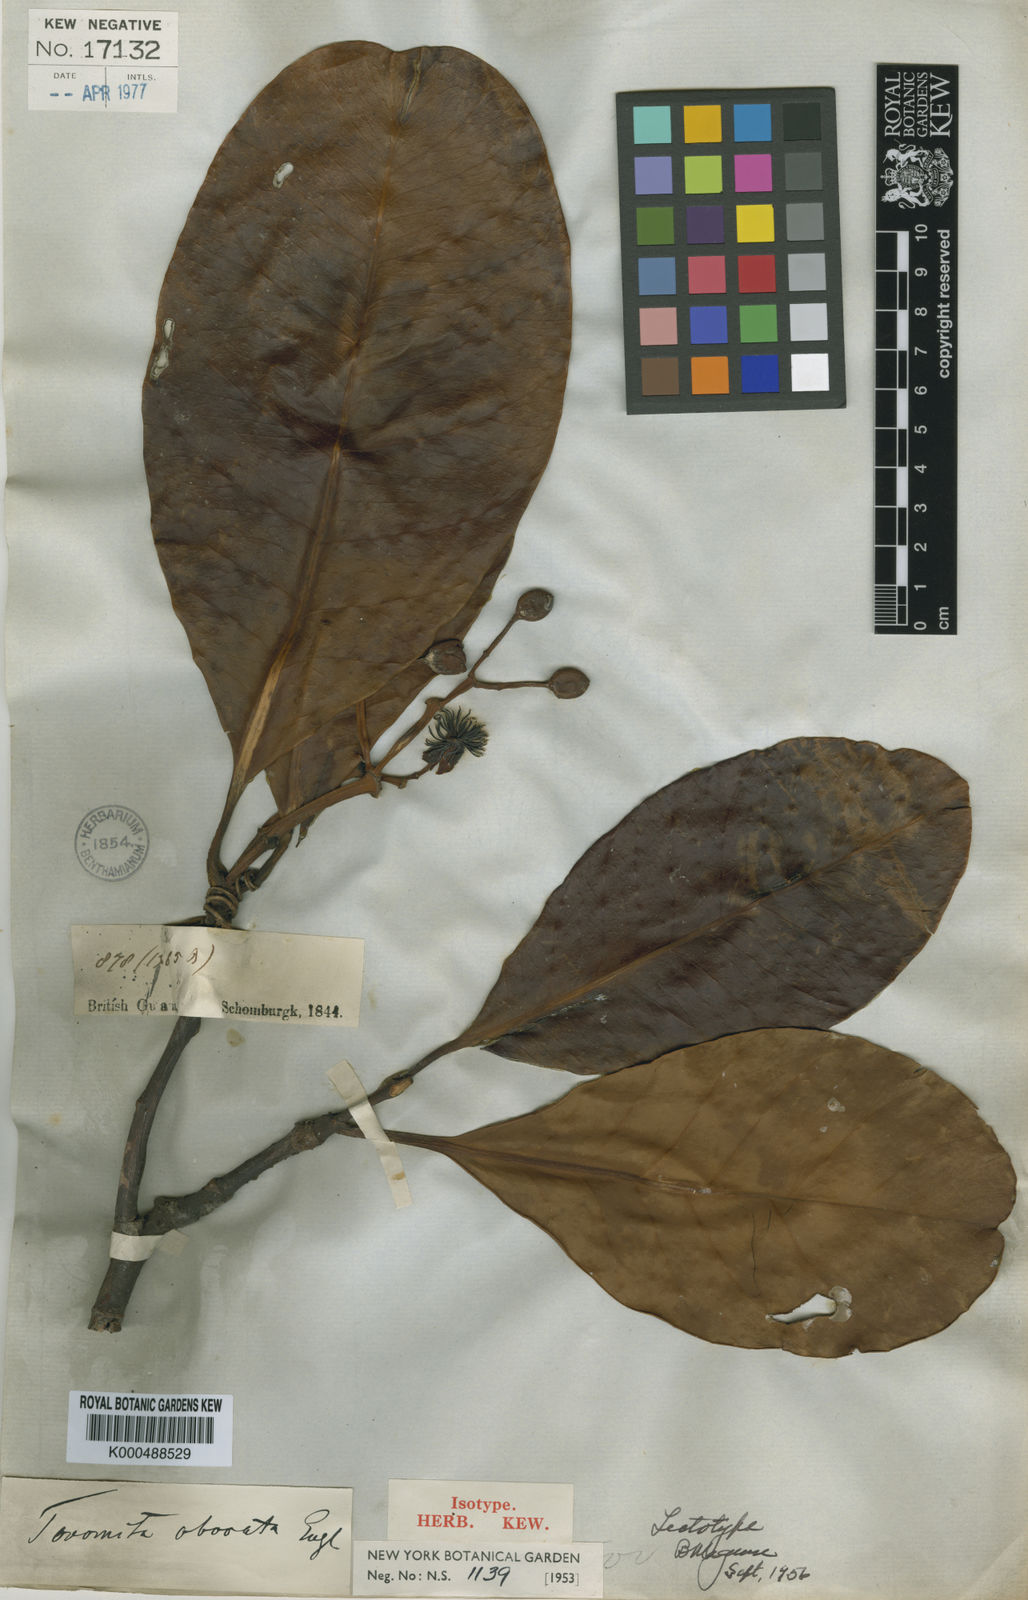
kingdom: Plantae
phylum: Tracheophyta
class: Magnoliopsida
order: Malpighiales
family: Clusiaceae
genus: Tovomita
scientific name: Tovomita obovata
